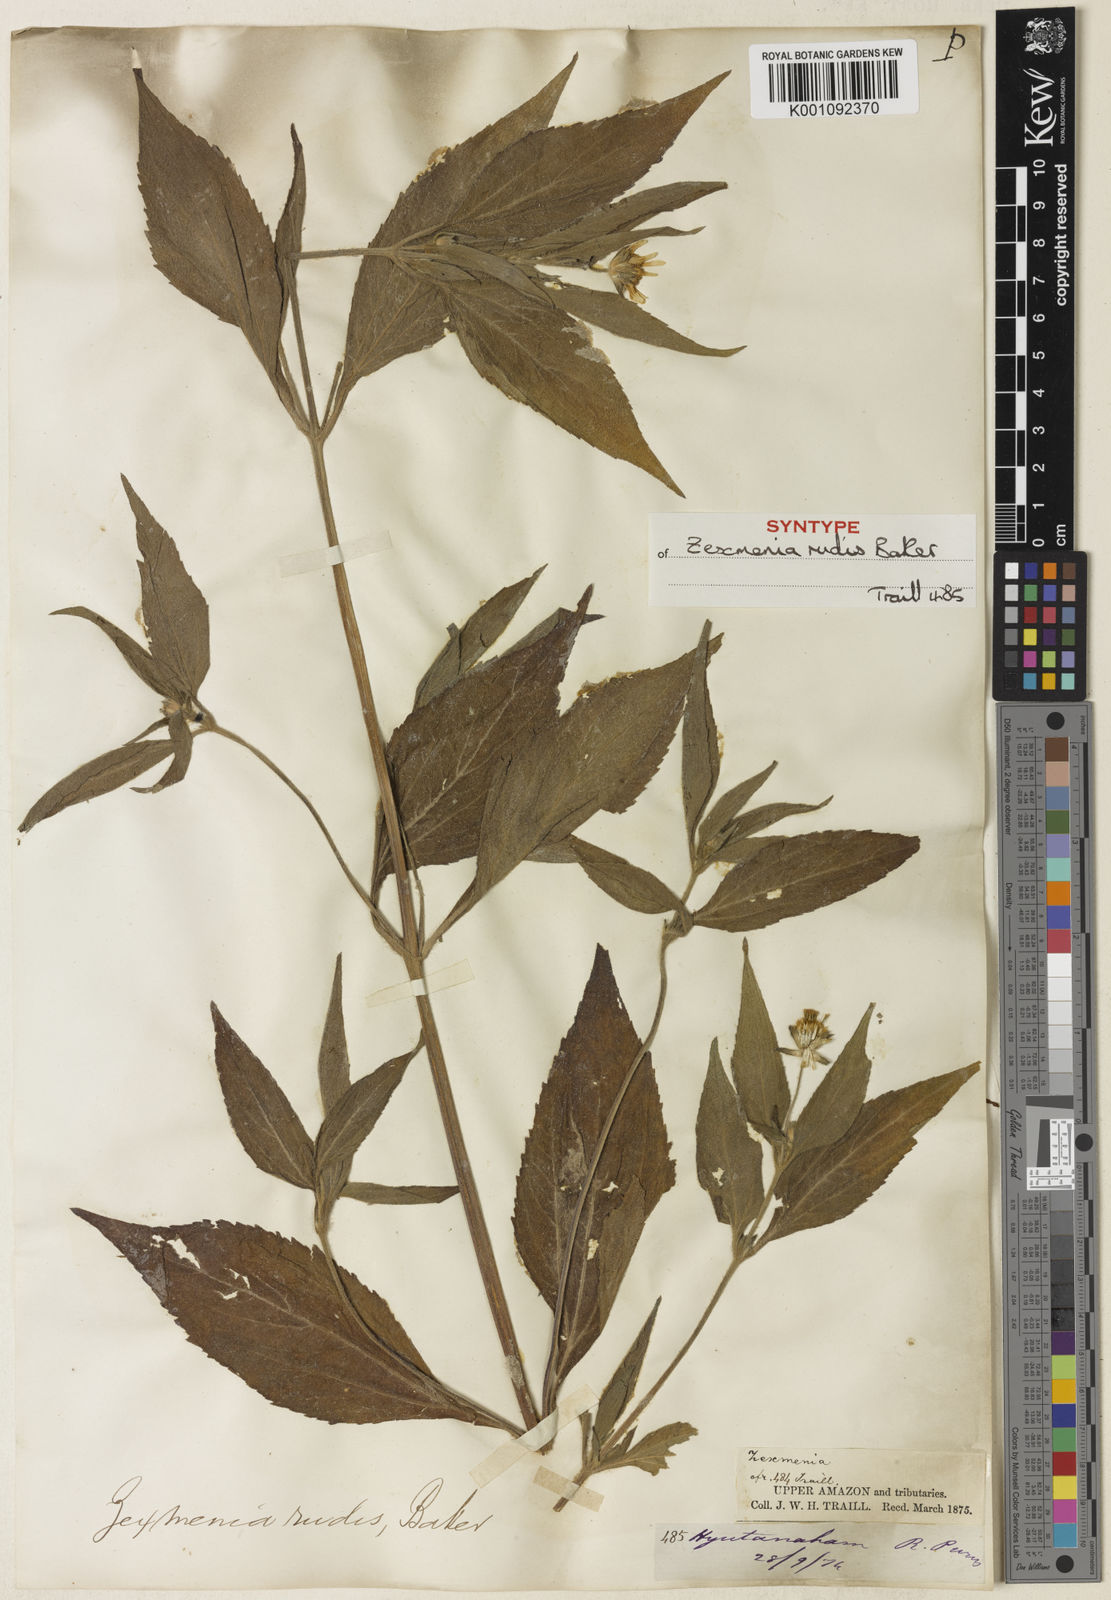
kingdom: Plantae
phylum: Tracheophyta
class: Magnoliopsida
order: Asterales
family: Asteraceae
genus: Wedelia
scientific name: Wedelia rudis
